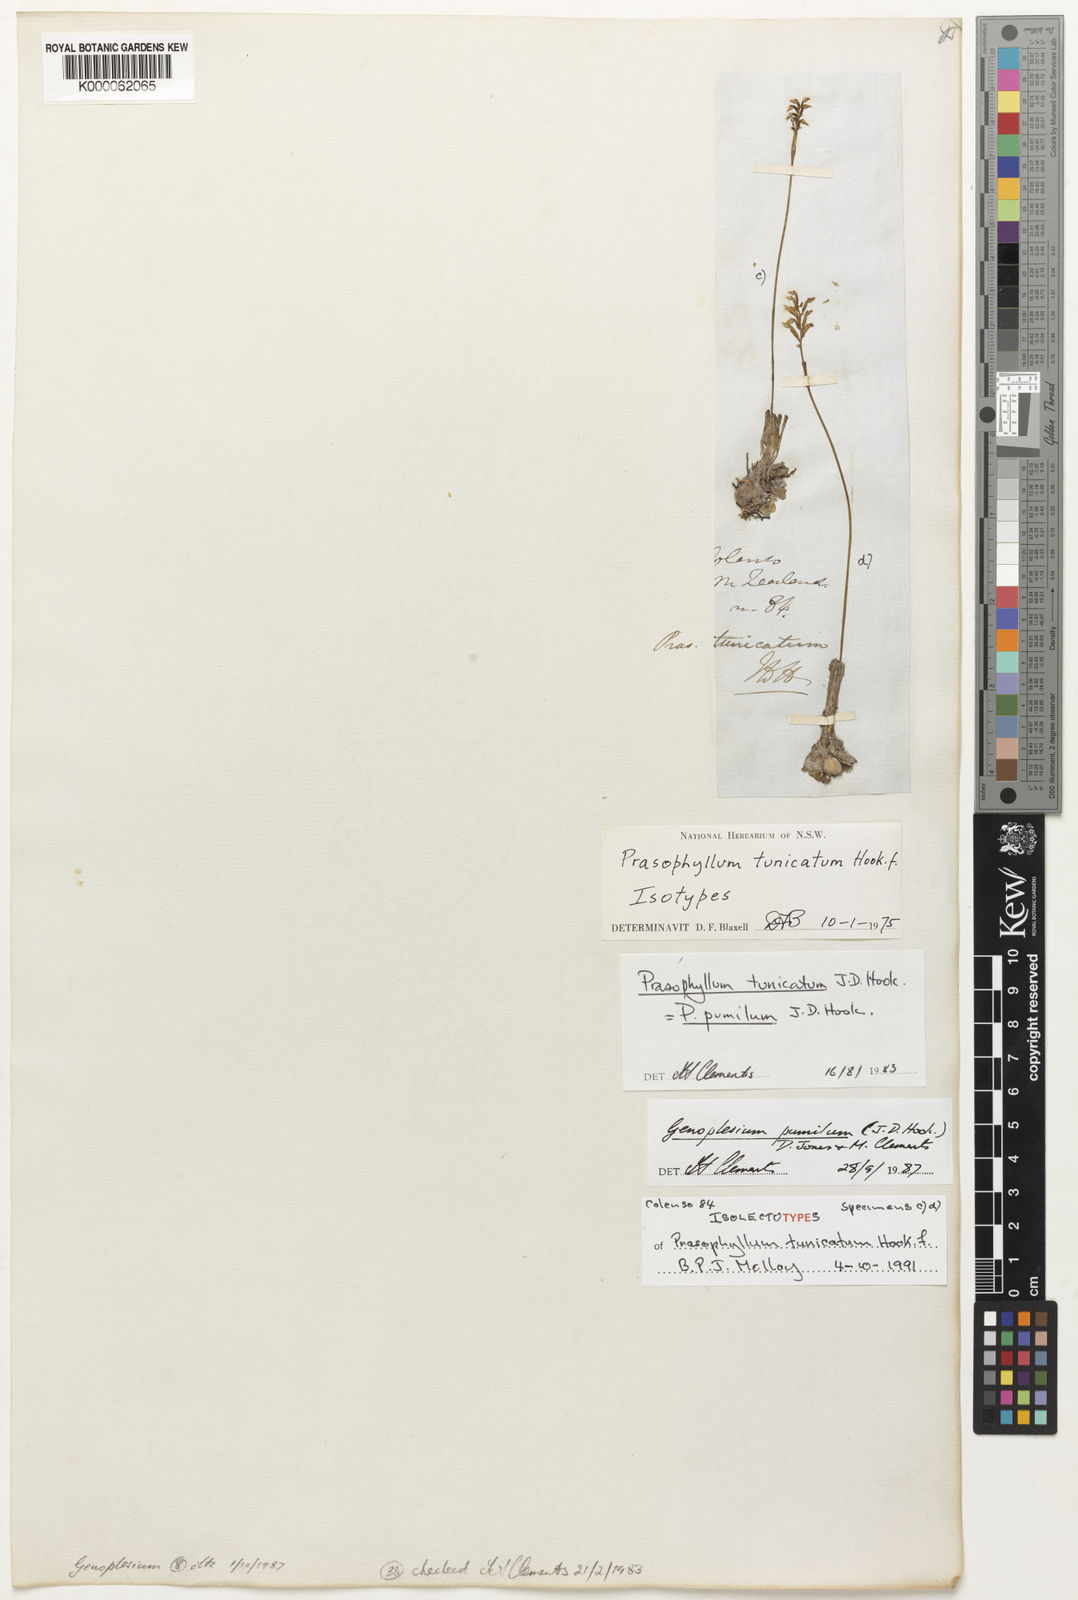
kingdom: Plantae
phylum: Tracheophyta
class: Liliopsida
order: Asparagales
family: Orchidaceae
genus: Genoplesium
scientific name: Genoplesium pumilum
